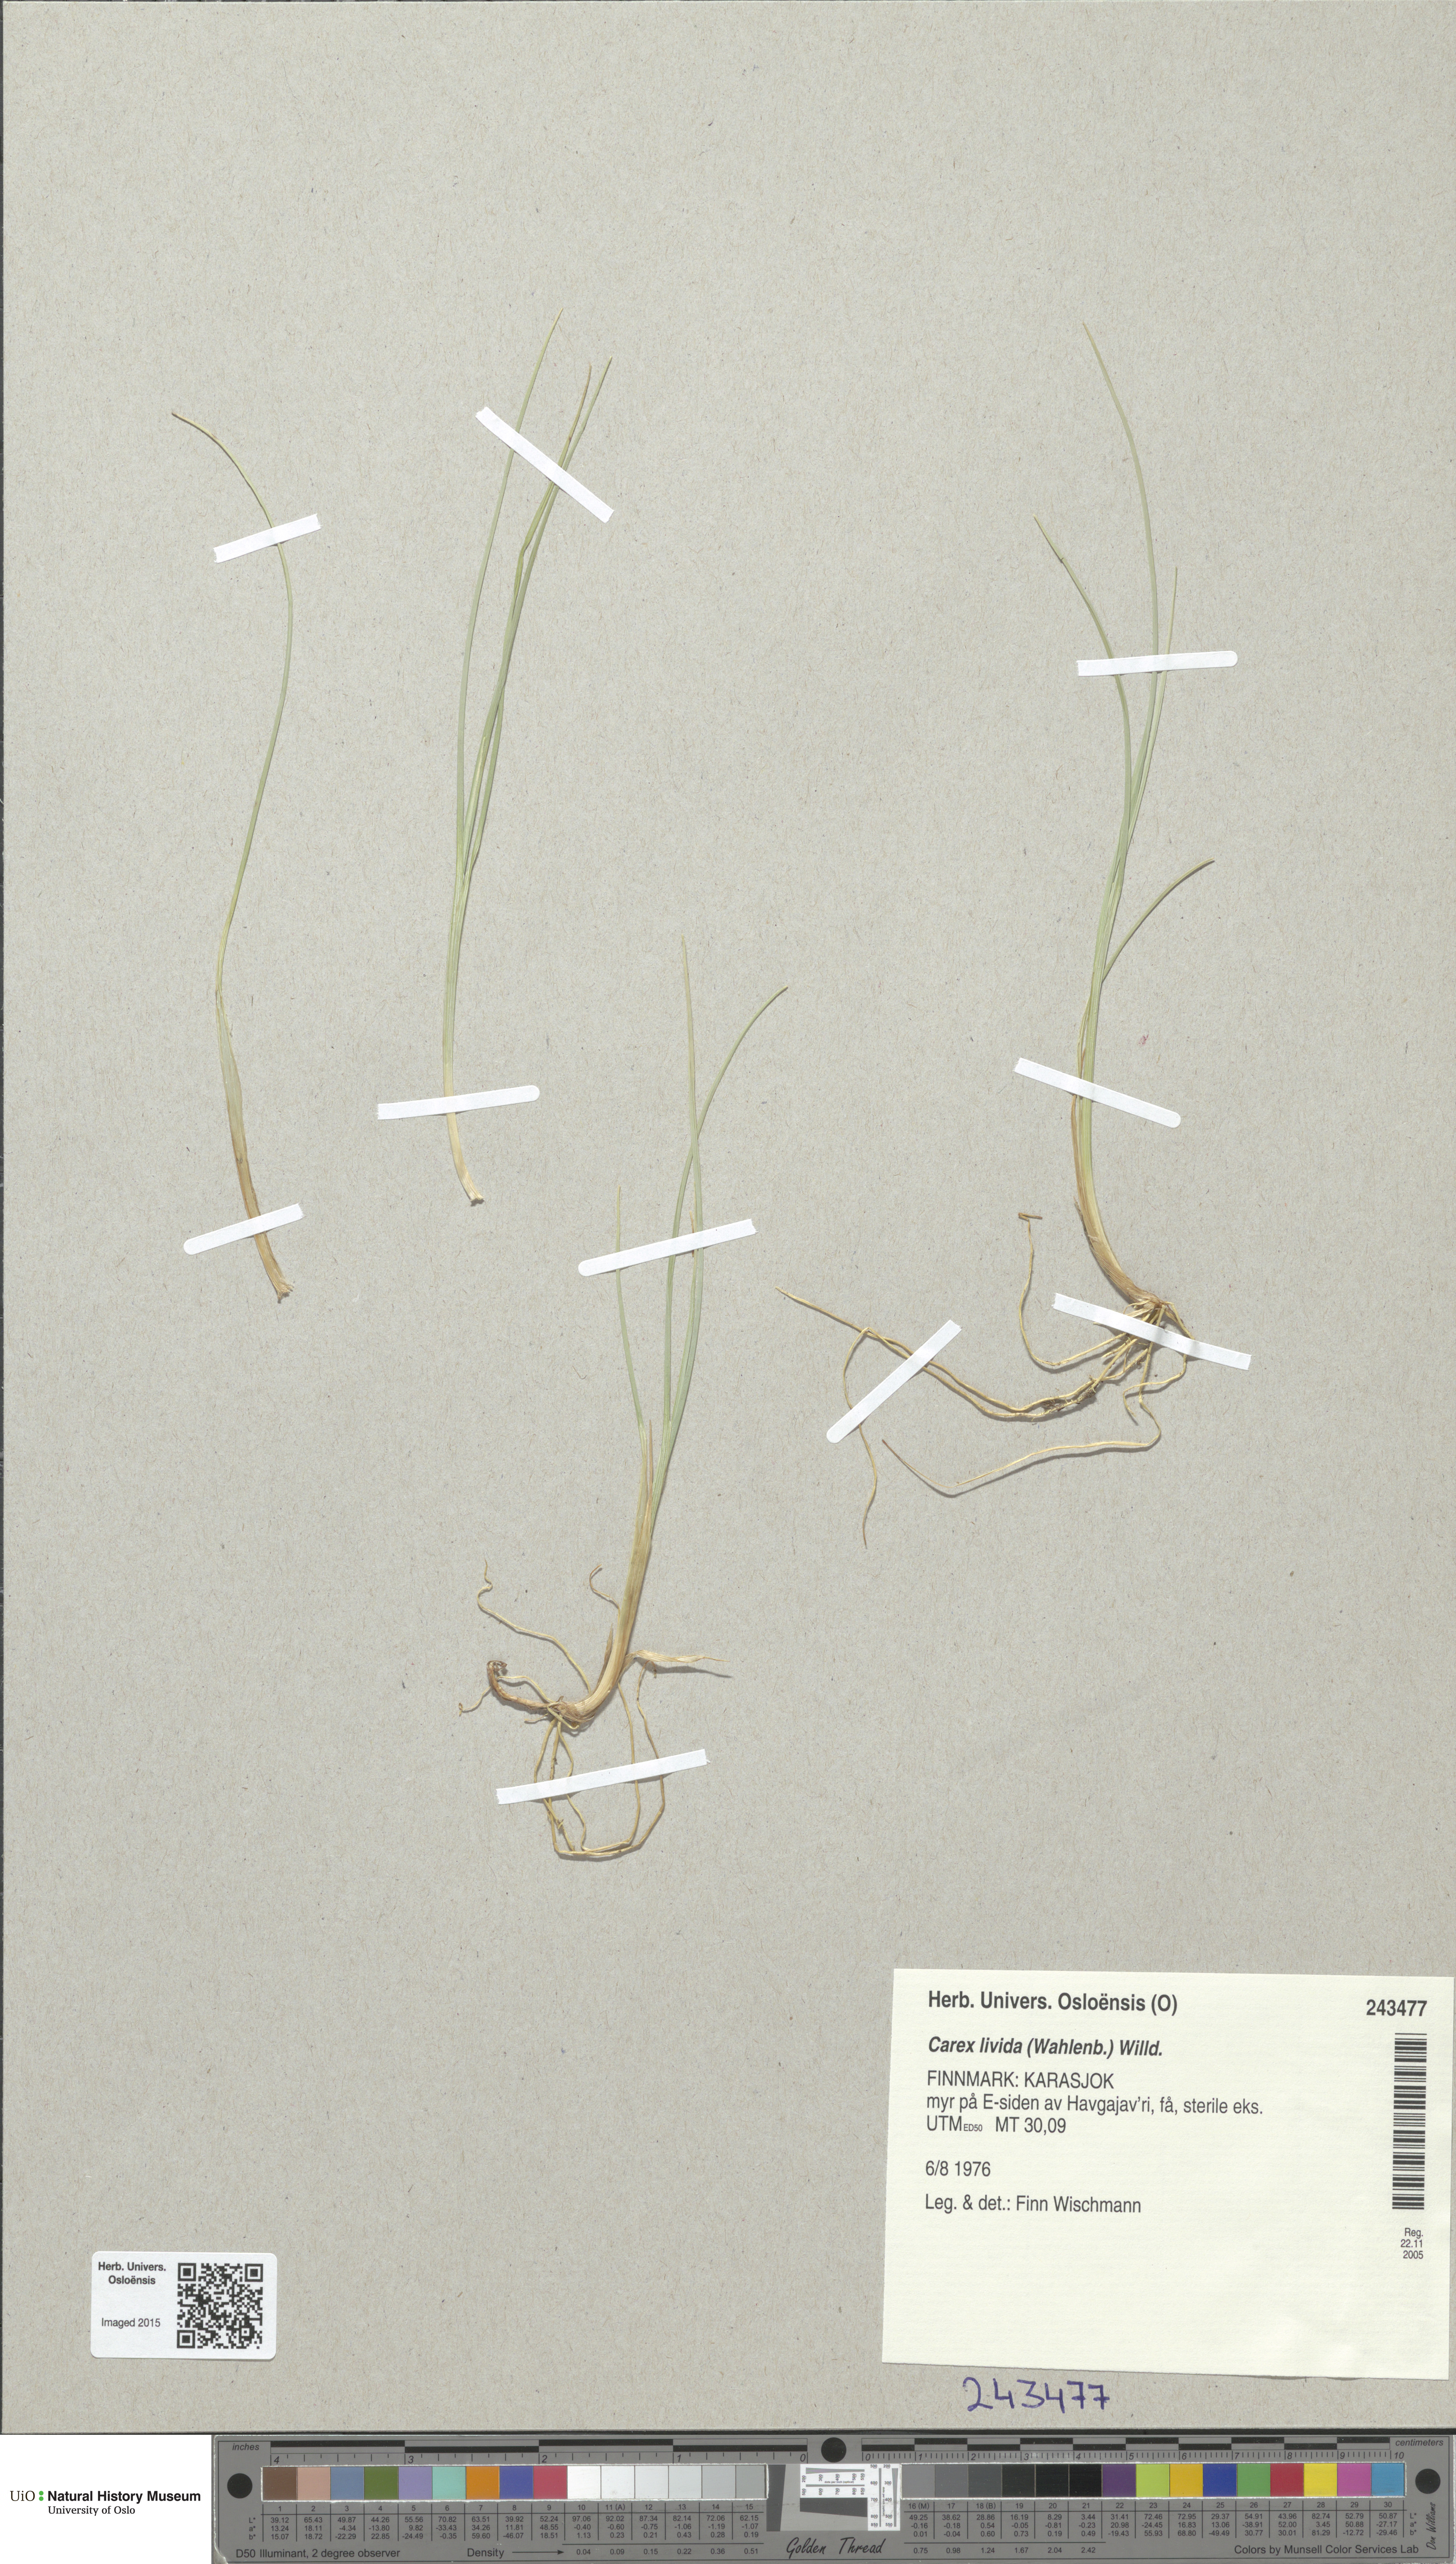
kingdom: Plantae
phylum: Tracheophyta
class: Liliopsida
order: Poales
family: Cyperaceae
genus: Carex
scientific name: Carex livida
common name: Livid sedge
